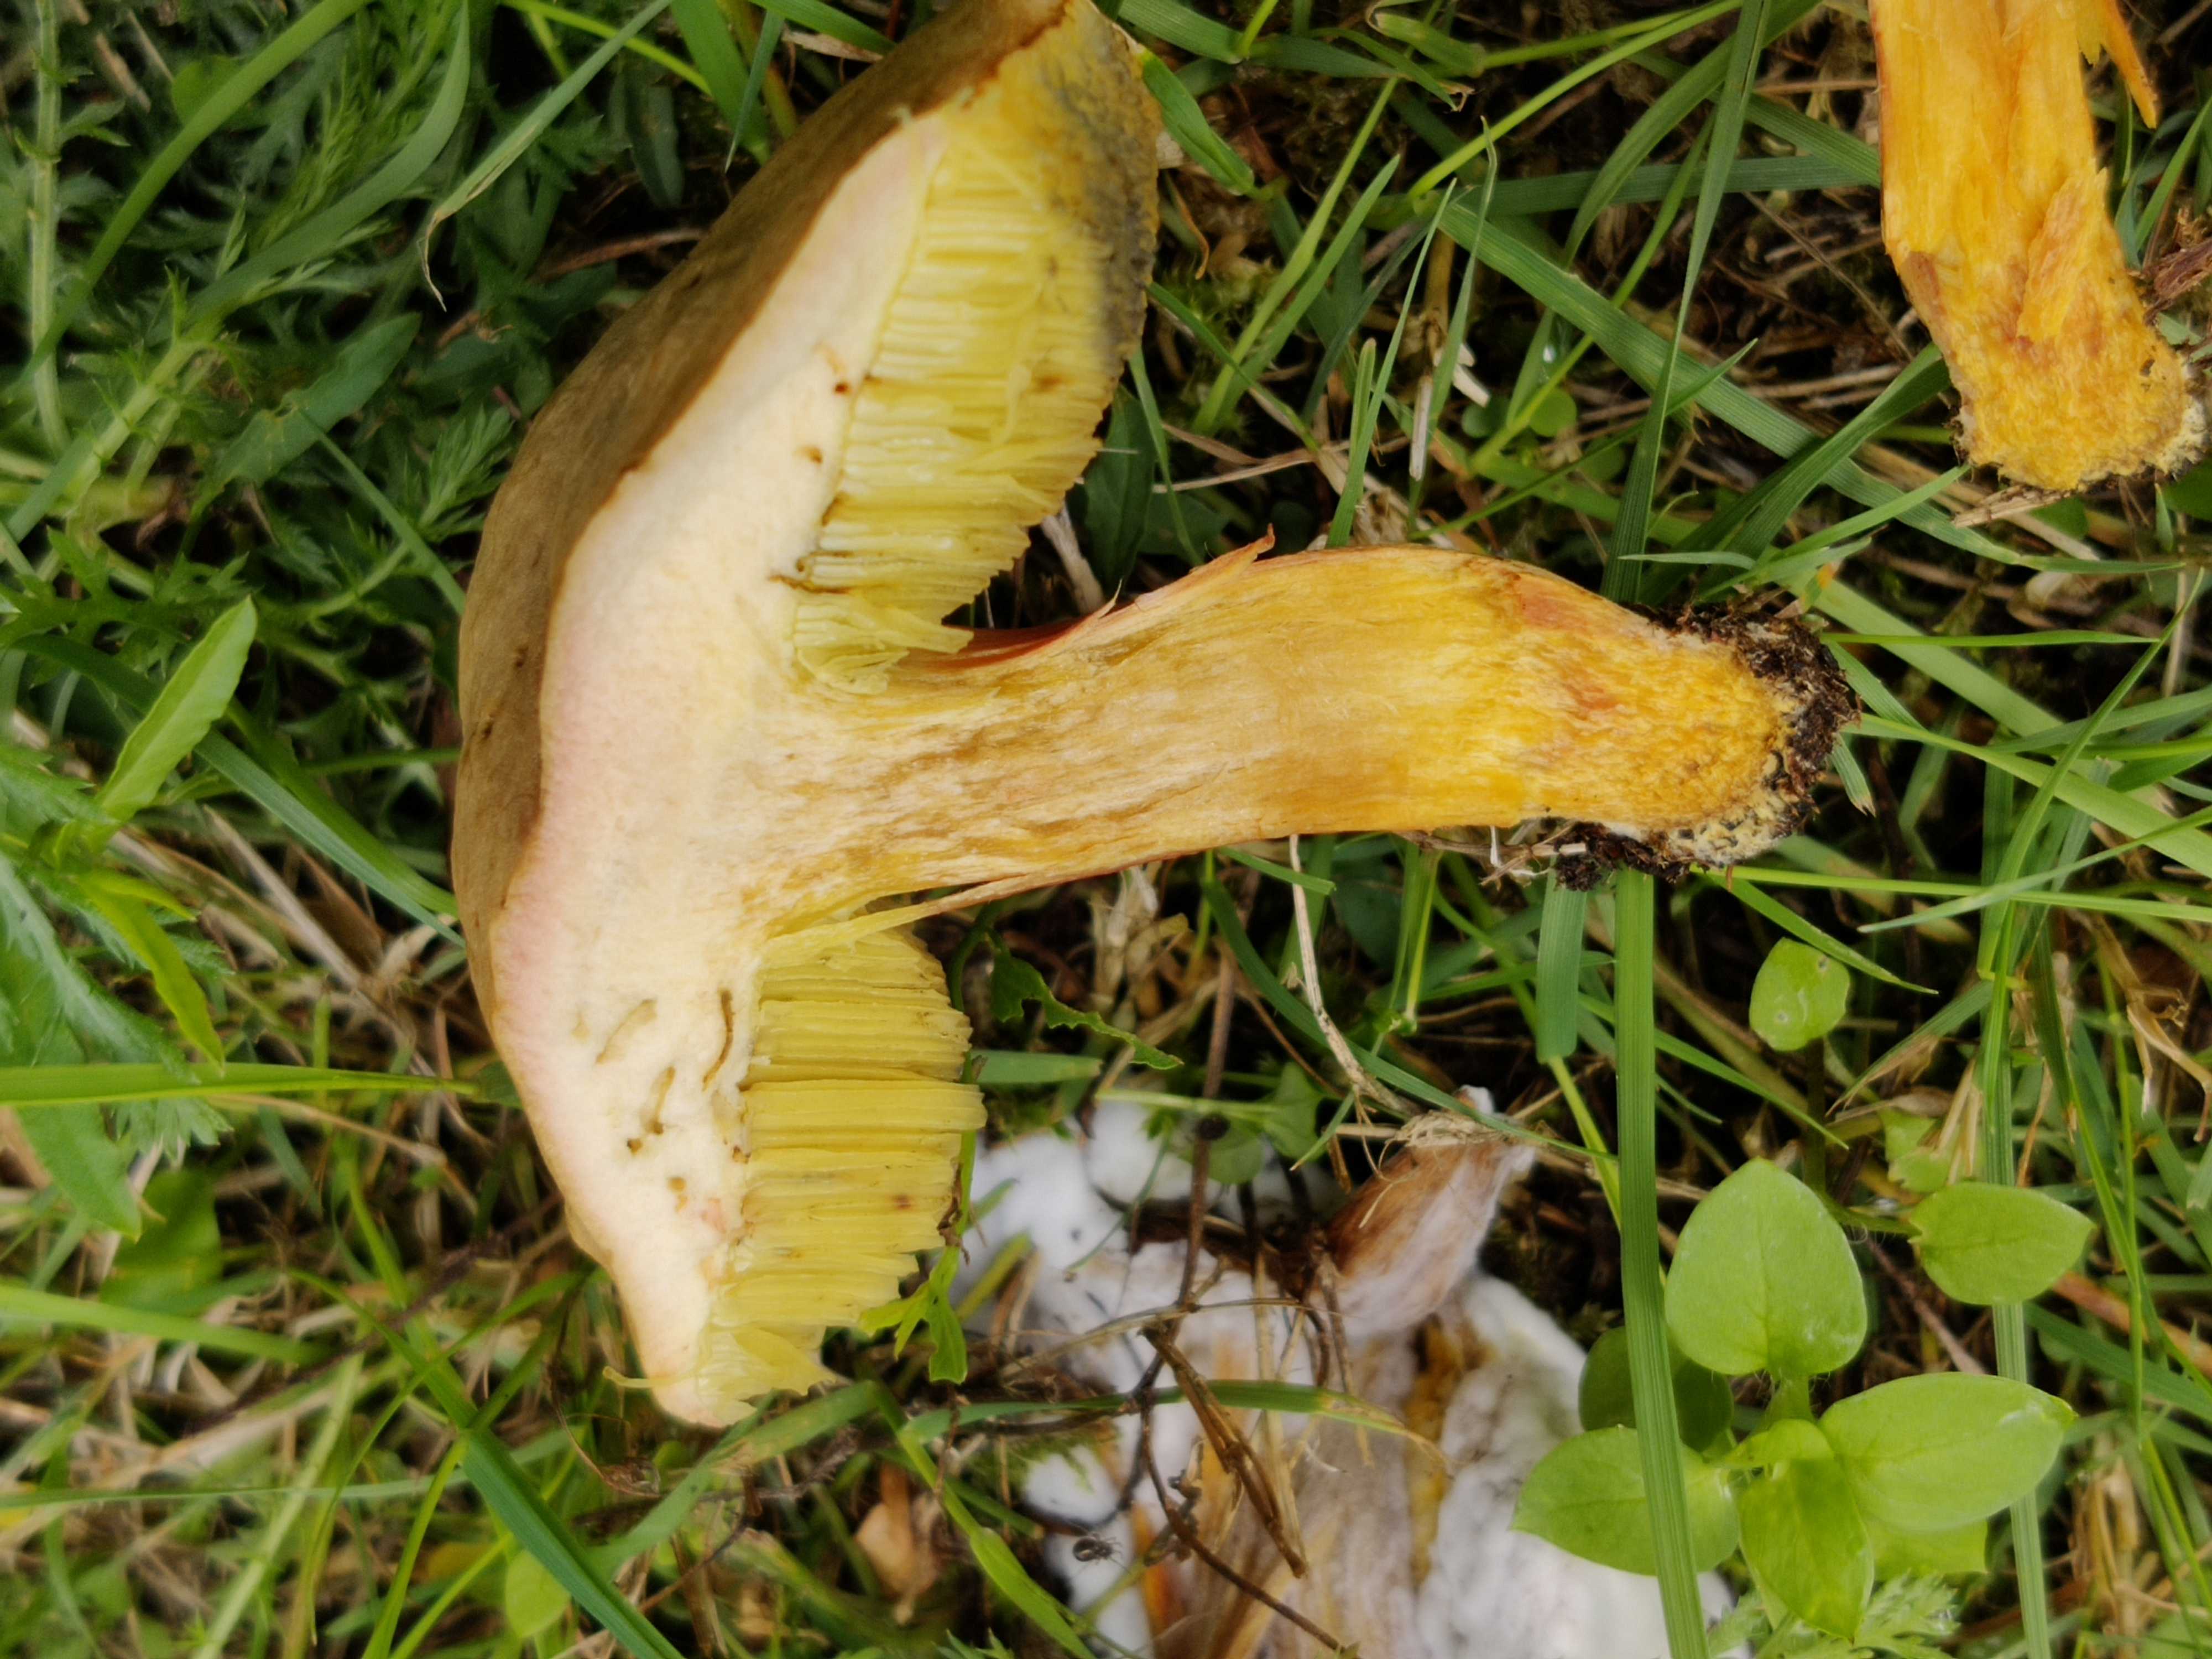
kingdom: Fungi
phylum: Basidiomycota
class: Agaricomycetes
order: Boletales
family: Boletaceae
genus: Hortiboletus
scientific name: Hortiboletus bubalinus
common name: aurora-rørhat
